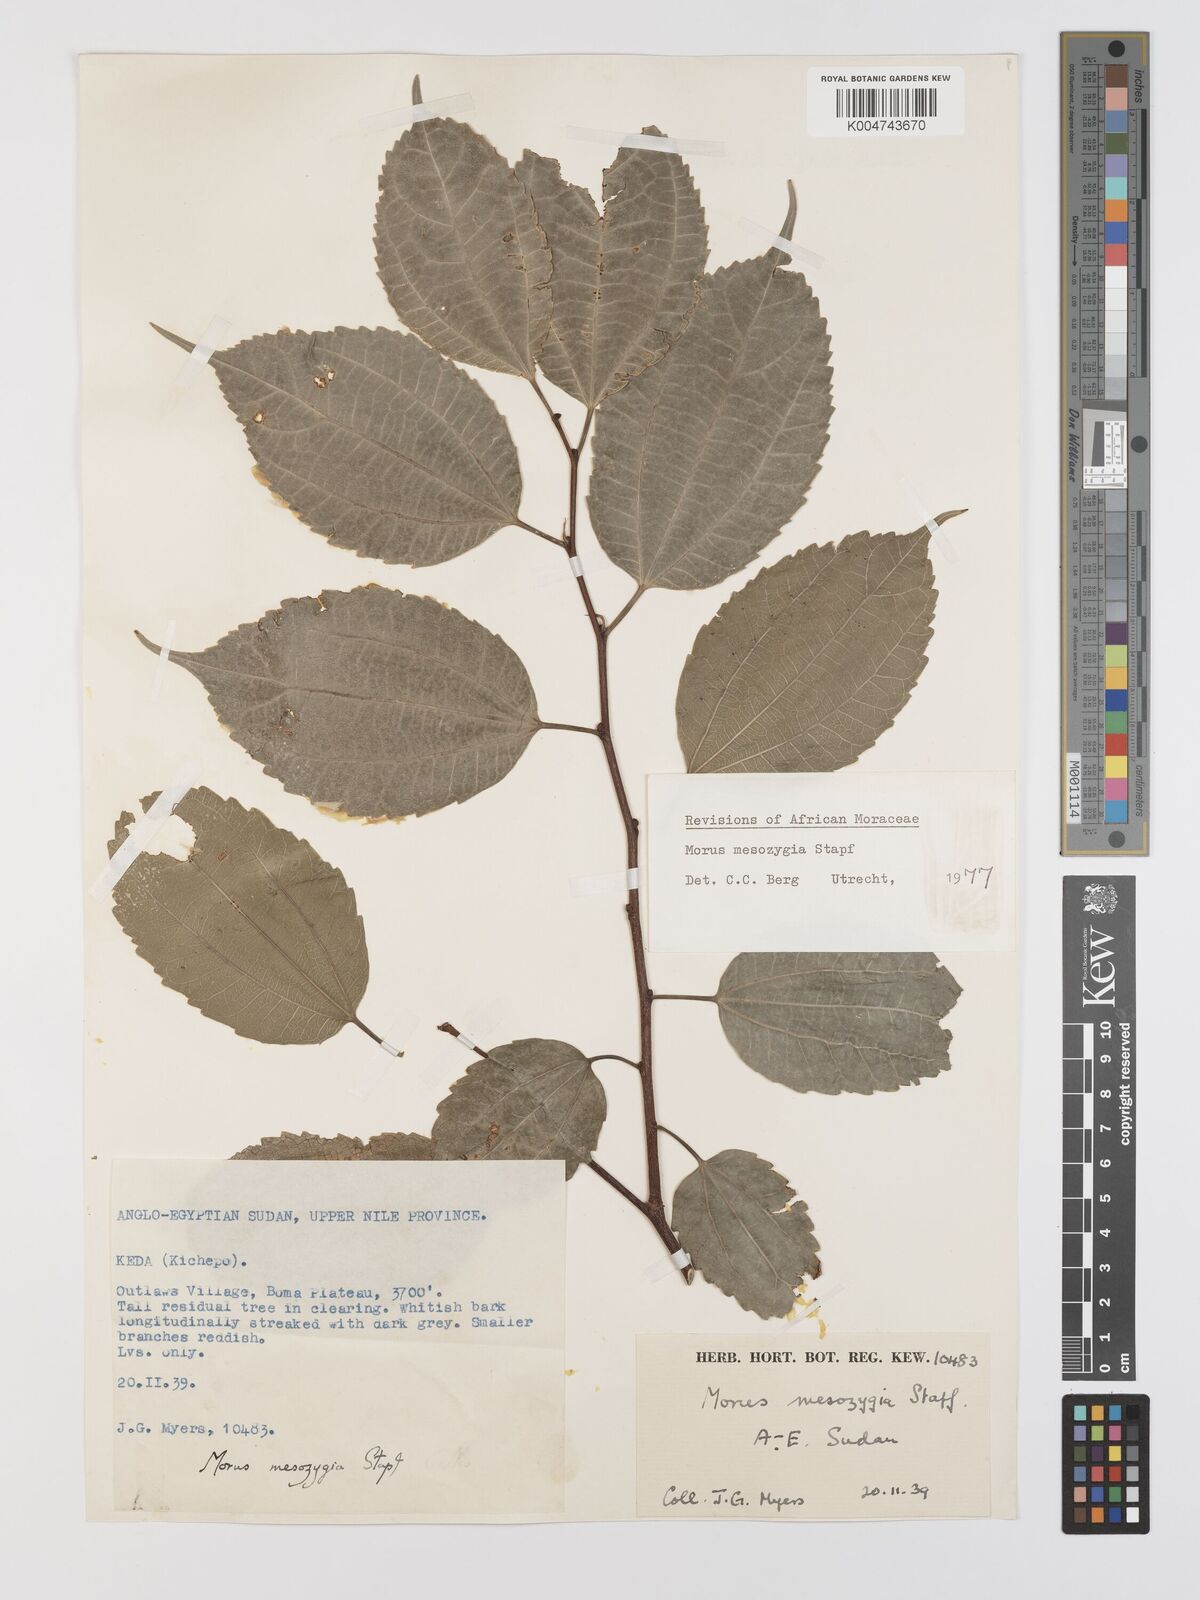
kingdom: Plantae
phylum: Tracheophyta
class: Magnoliopsida
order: Rosales
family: Moraceae
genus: Afromorus
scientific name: Afromorus mesozygia
